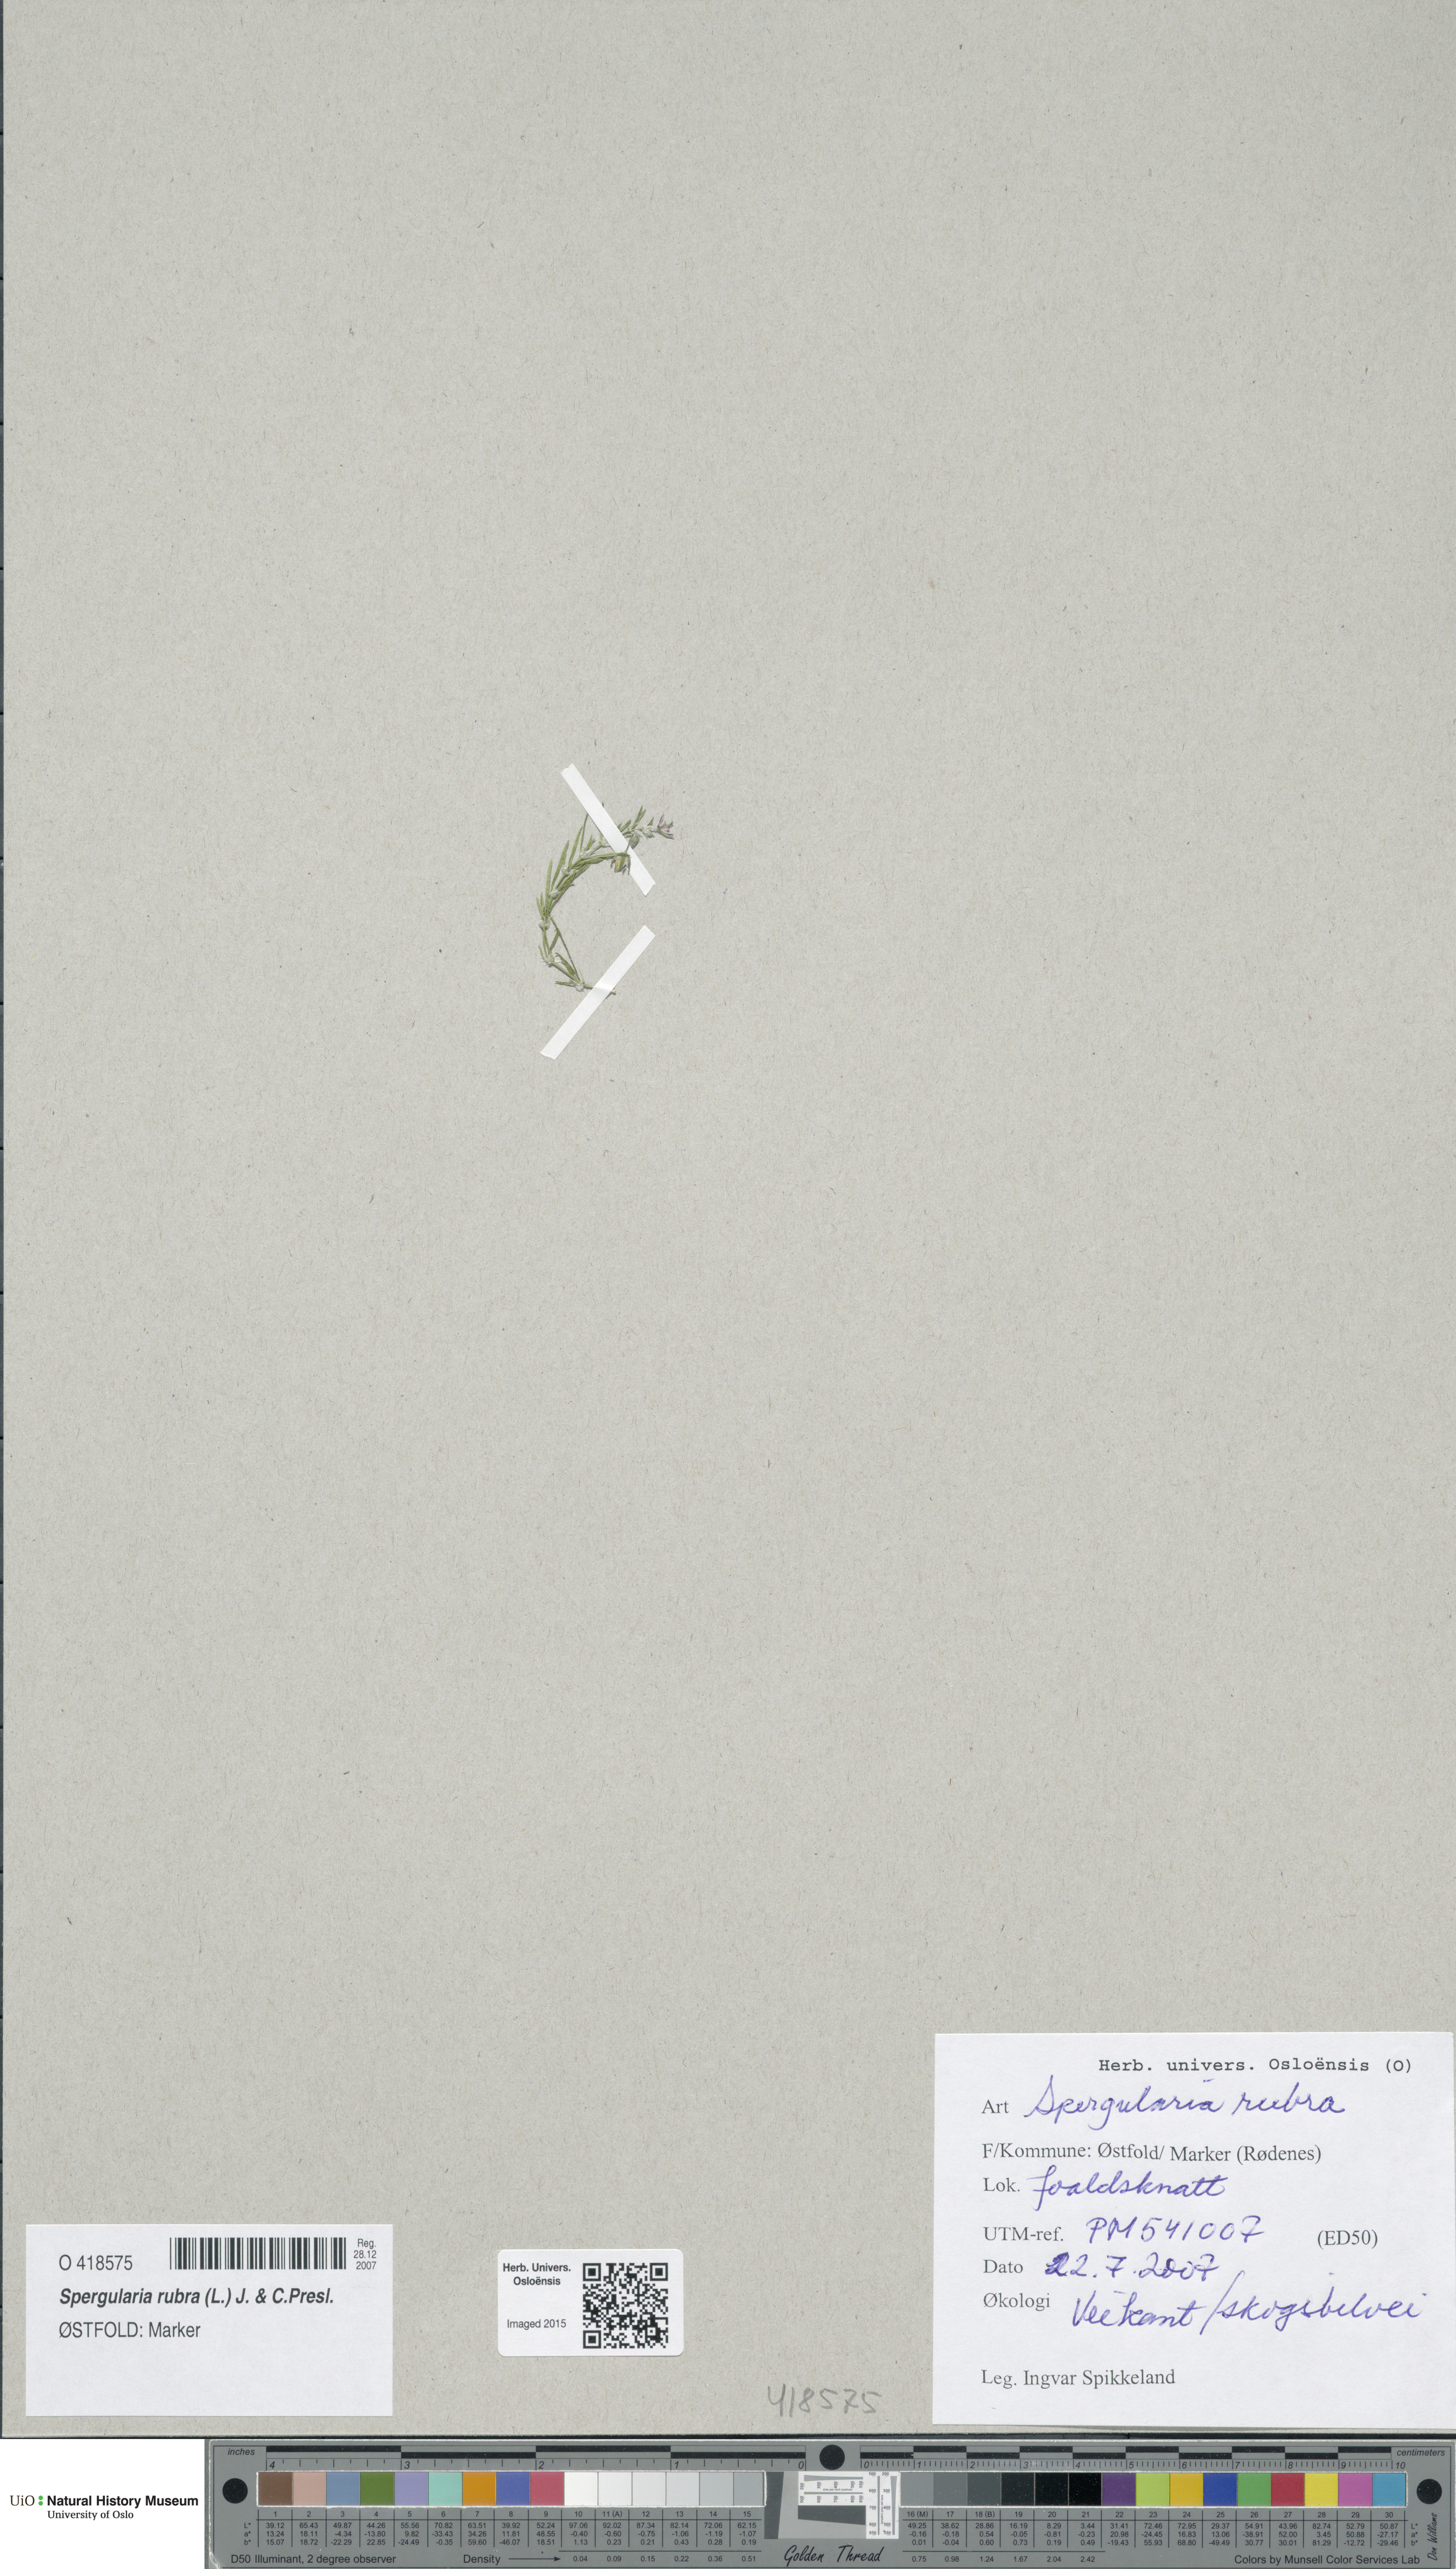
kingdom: Plantae
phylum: Tracheophyta
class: Magnoliopsida
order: Caryophyllales
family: Caryophyllaceae
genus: Spergularia
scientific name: Spergularia rubra
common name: Red sand-spurrey
